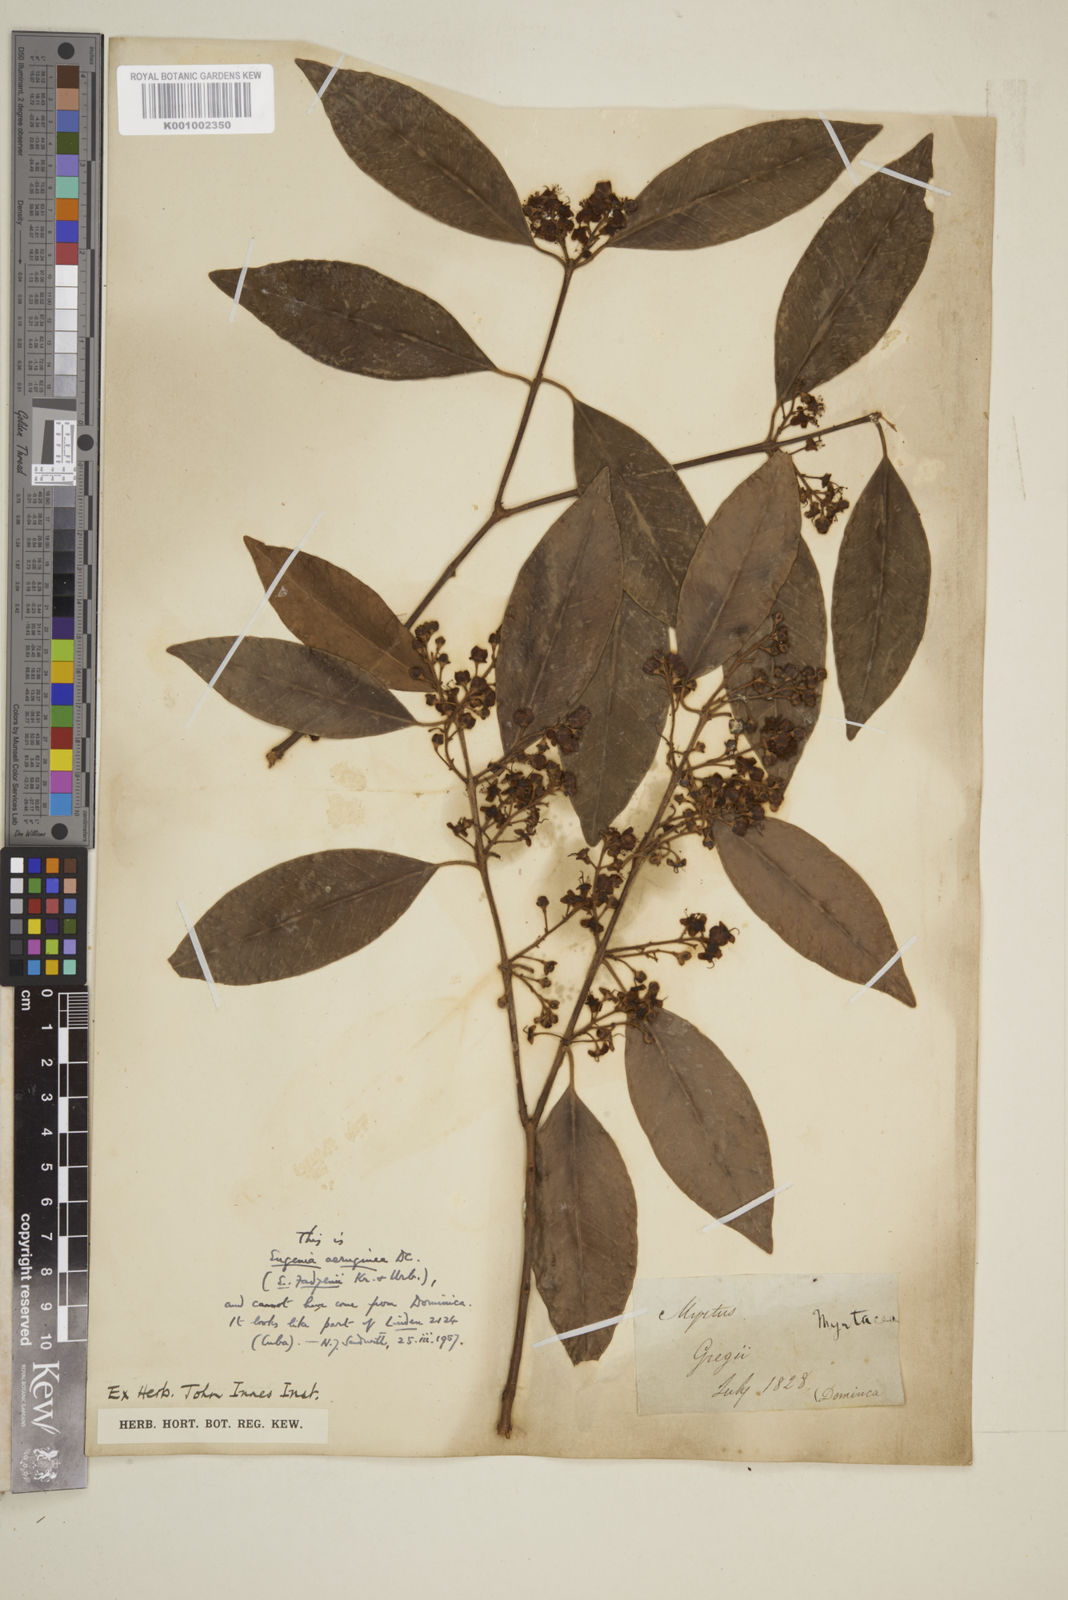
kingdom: Plantae
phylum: Tracheophyta
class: Magnoliopsida
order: Myrtales
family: Myrtaceae
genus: Eugenia
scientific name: Eugenia aeruginea
